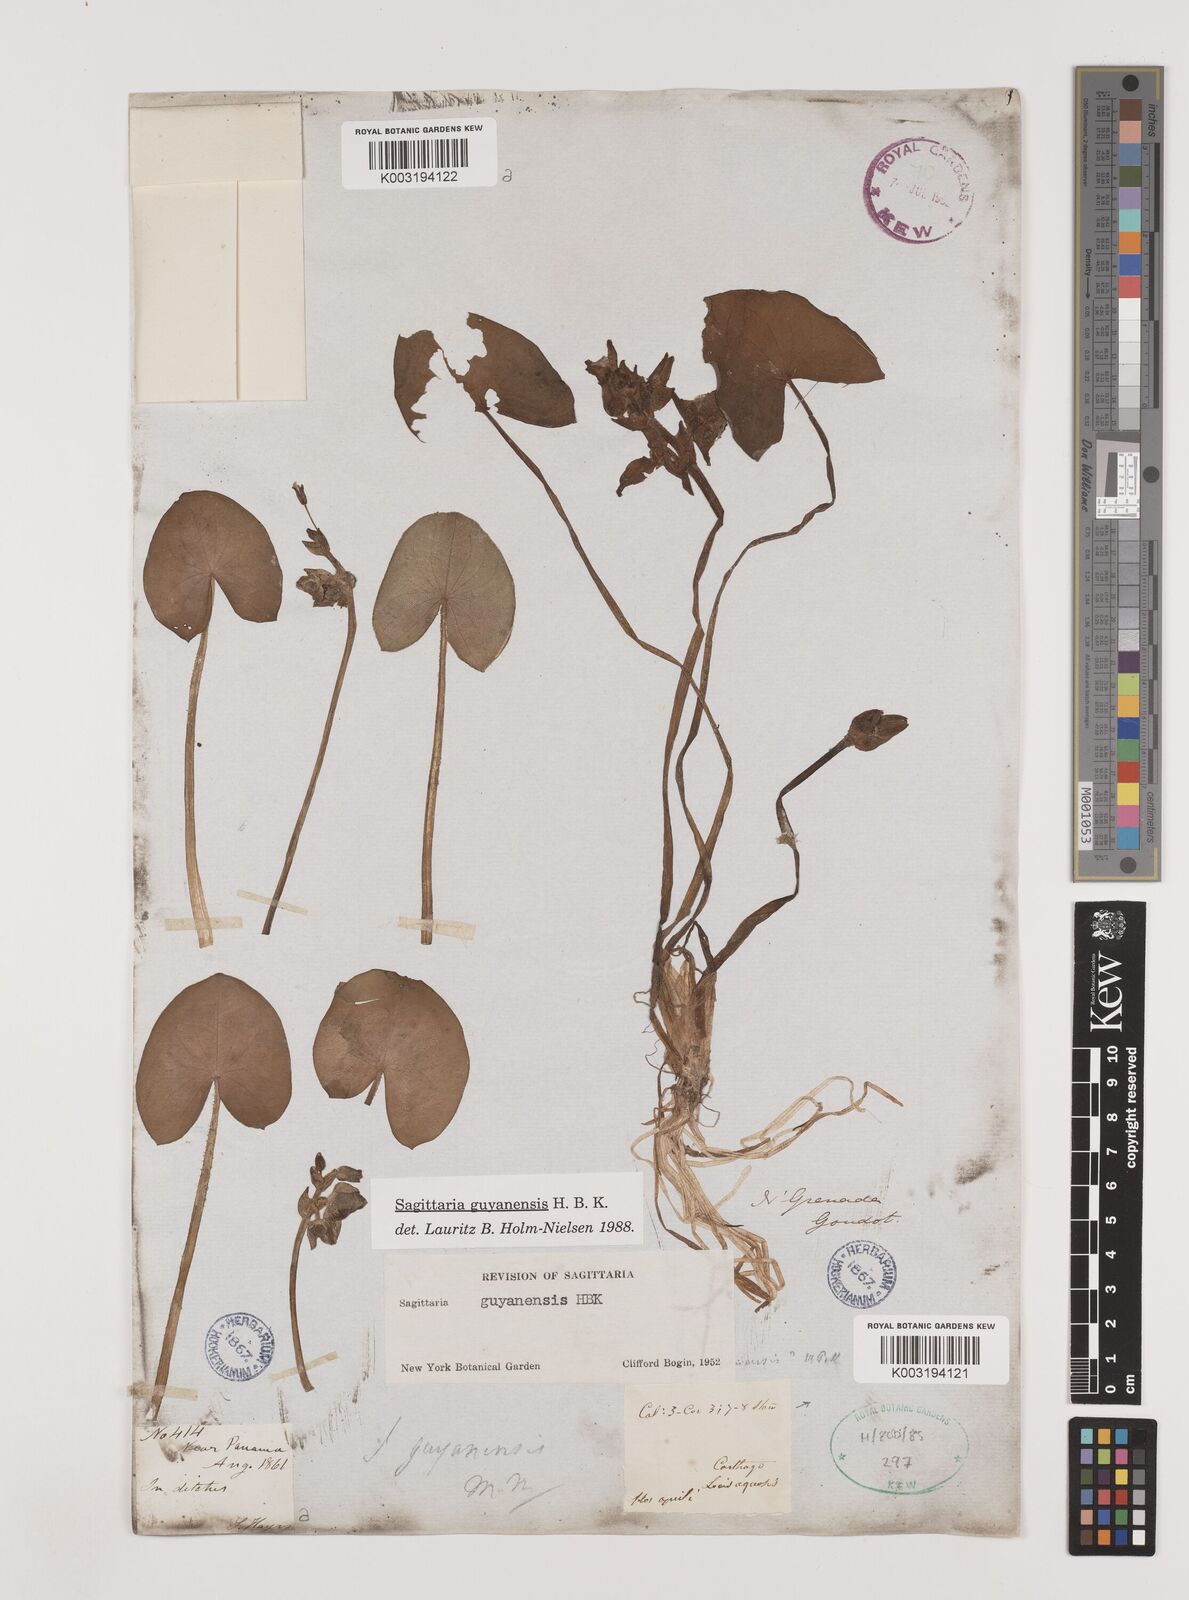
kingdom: Plantae
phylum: Tracheophyta
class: Liliopsida
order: Alismatales
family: Alismataceae
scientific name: Alismataceae
